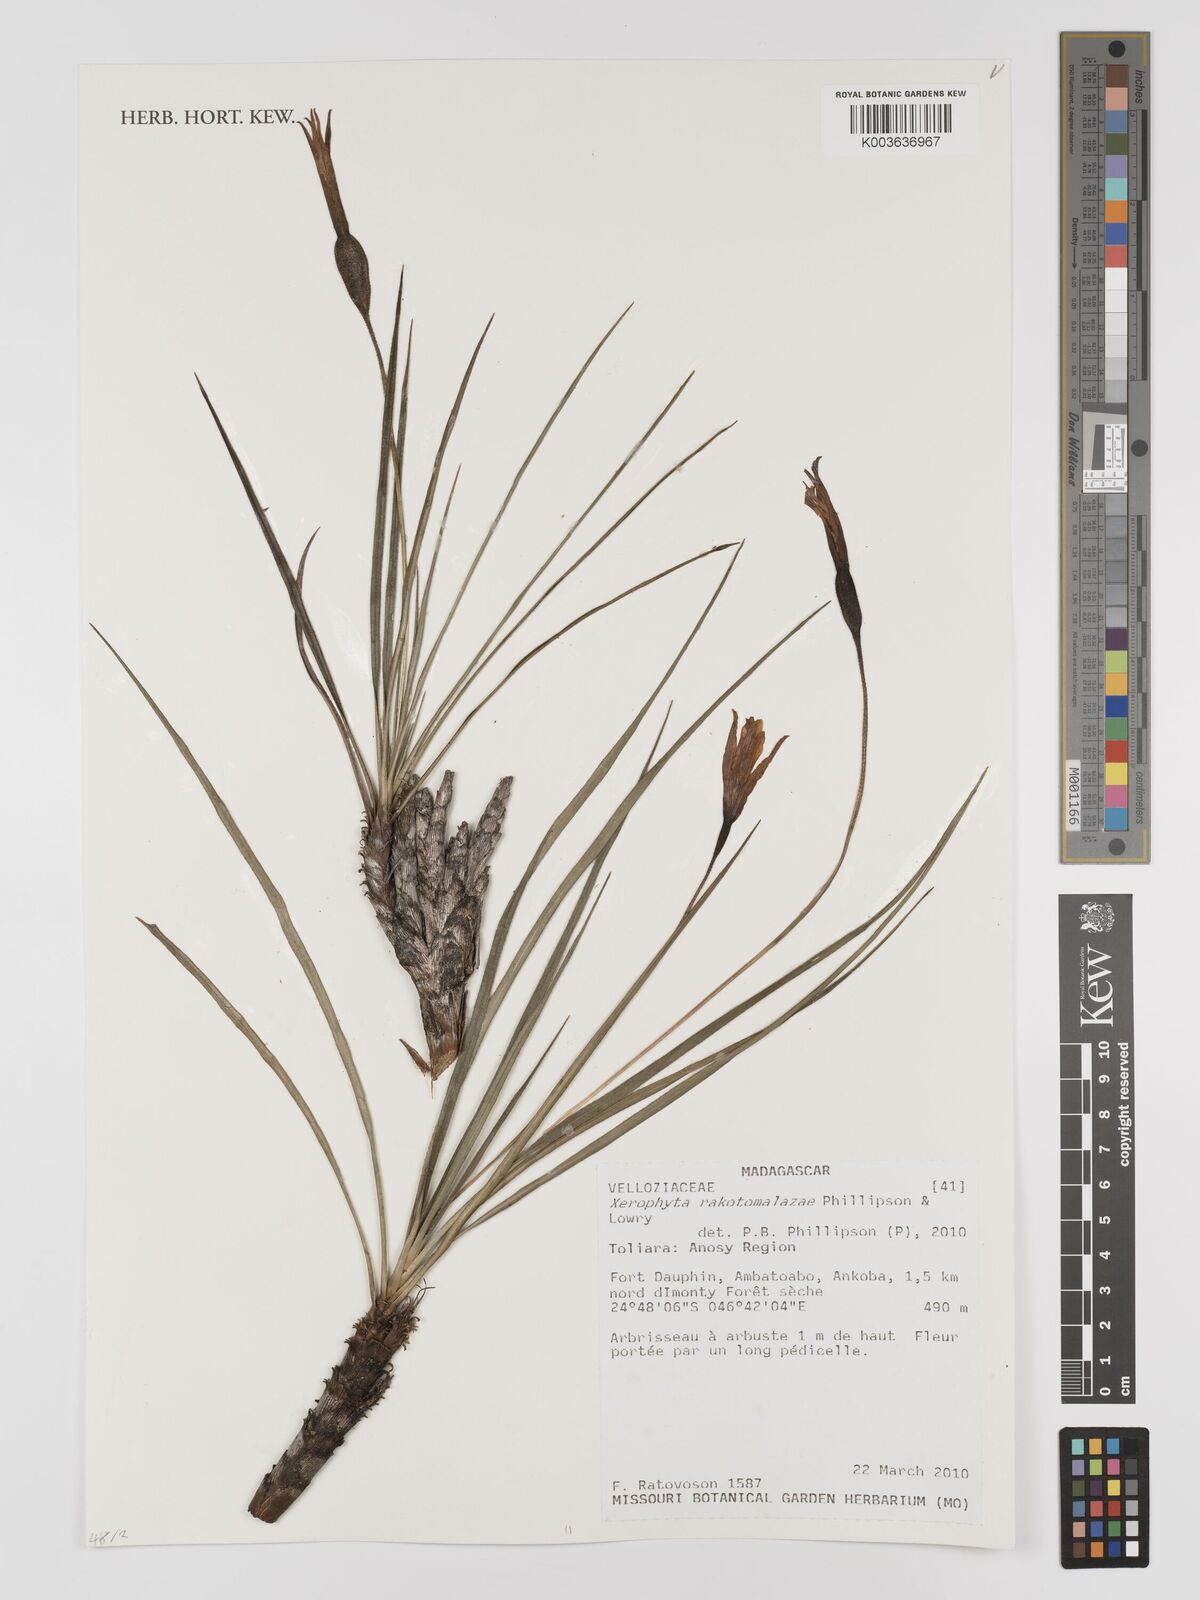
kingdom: Plantae
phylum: Tracheophyta
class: Liliopsida
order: Pandanales
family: Velloziaceae
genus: Xerophyta
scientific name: Xerophyta
